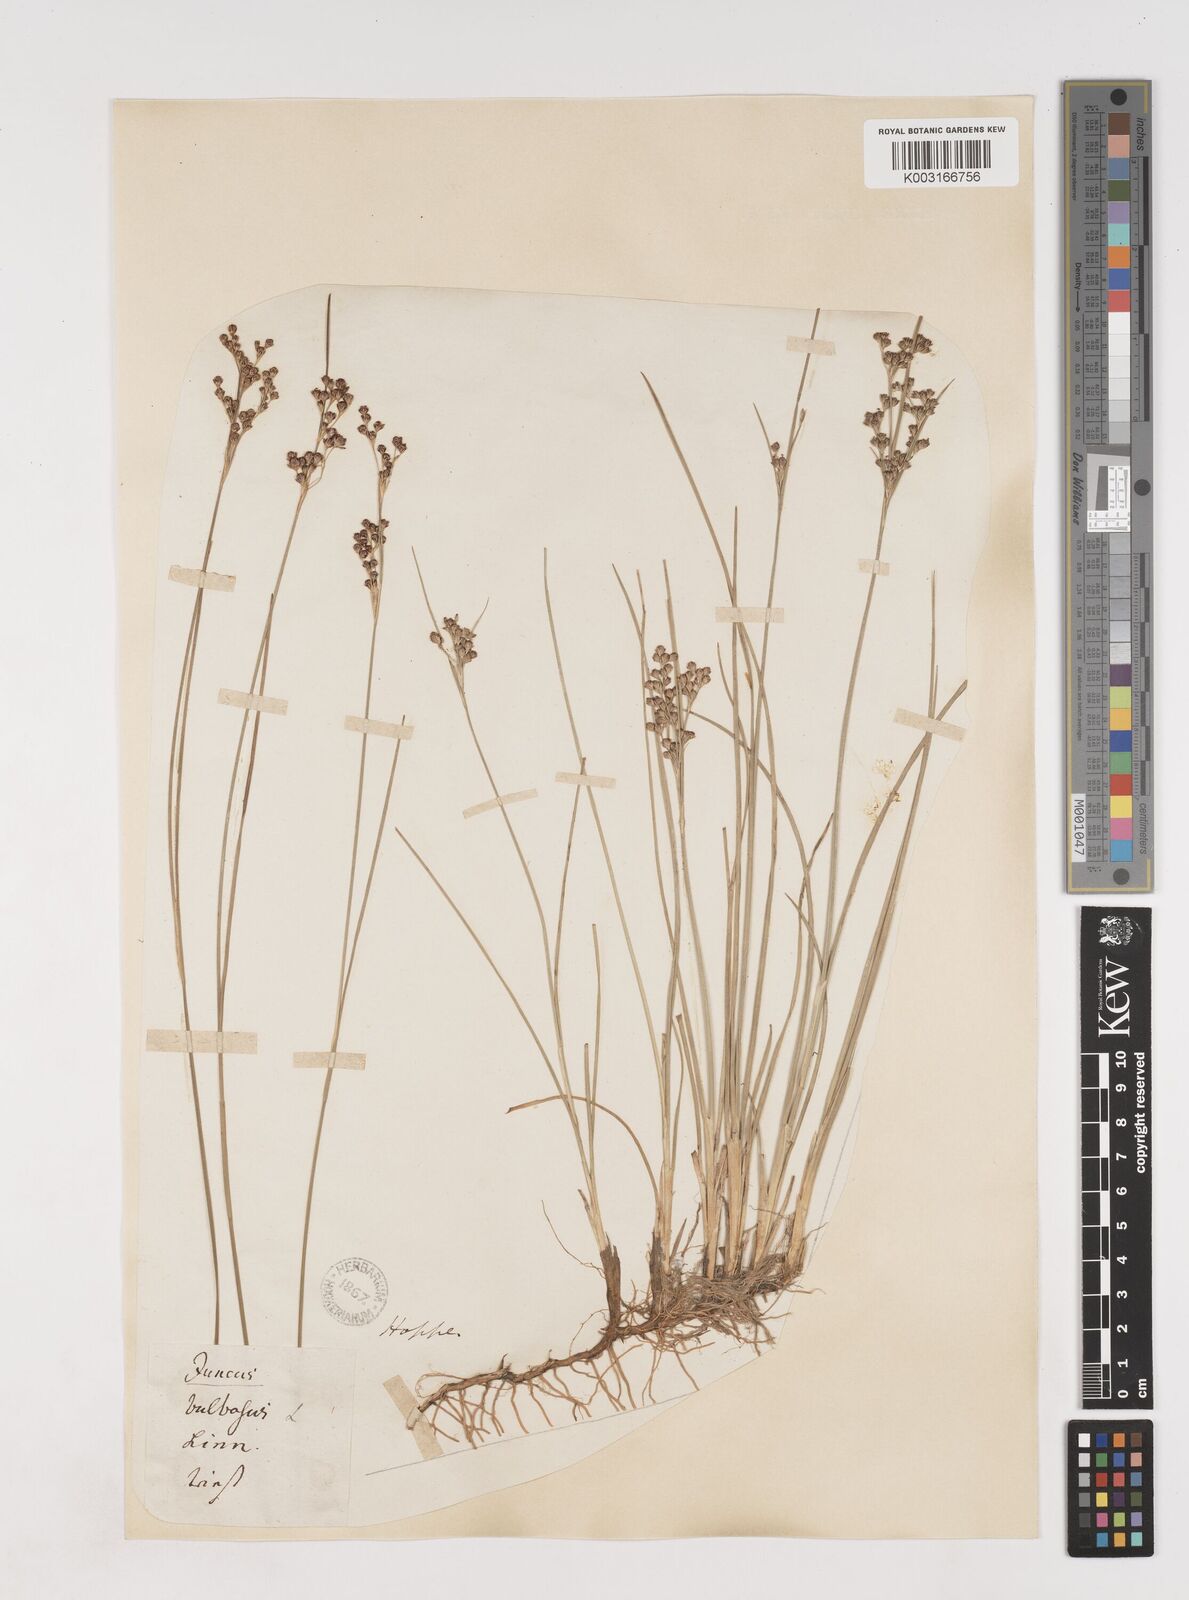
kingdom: Plantae
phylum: Tracheophyta
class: Liliopsida
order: Poales
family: Juncaceae
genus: Juncus
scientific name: Juncus
